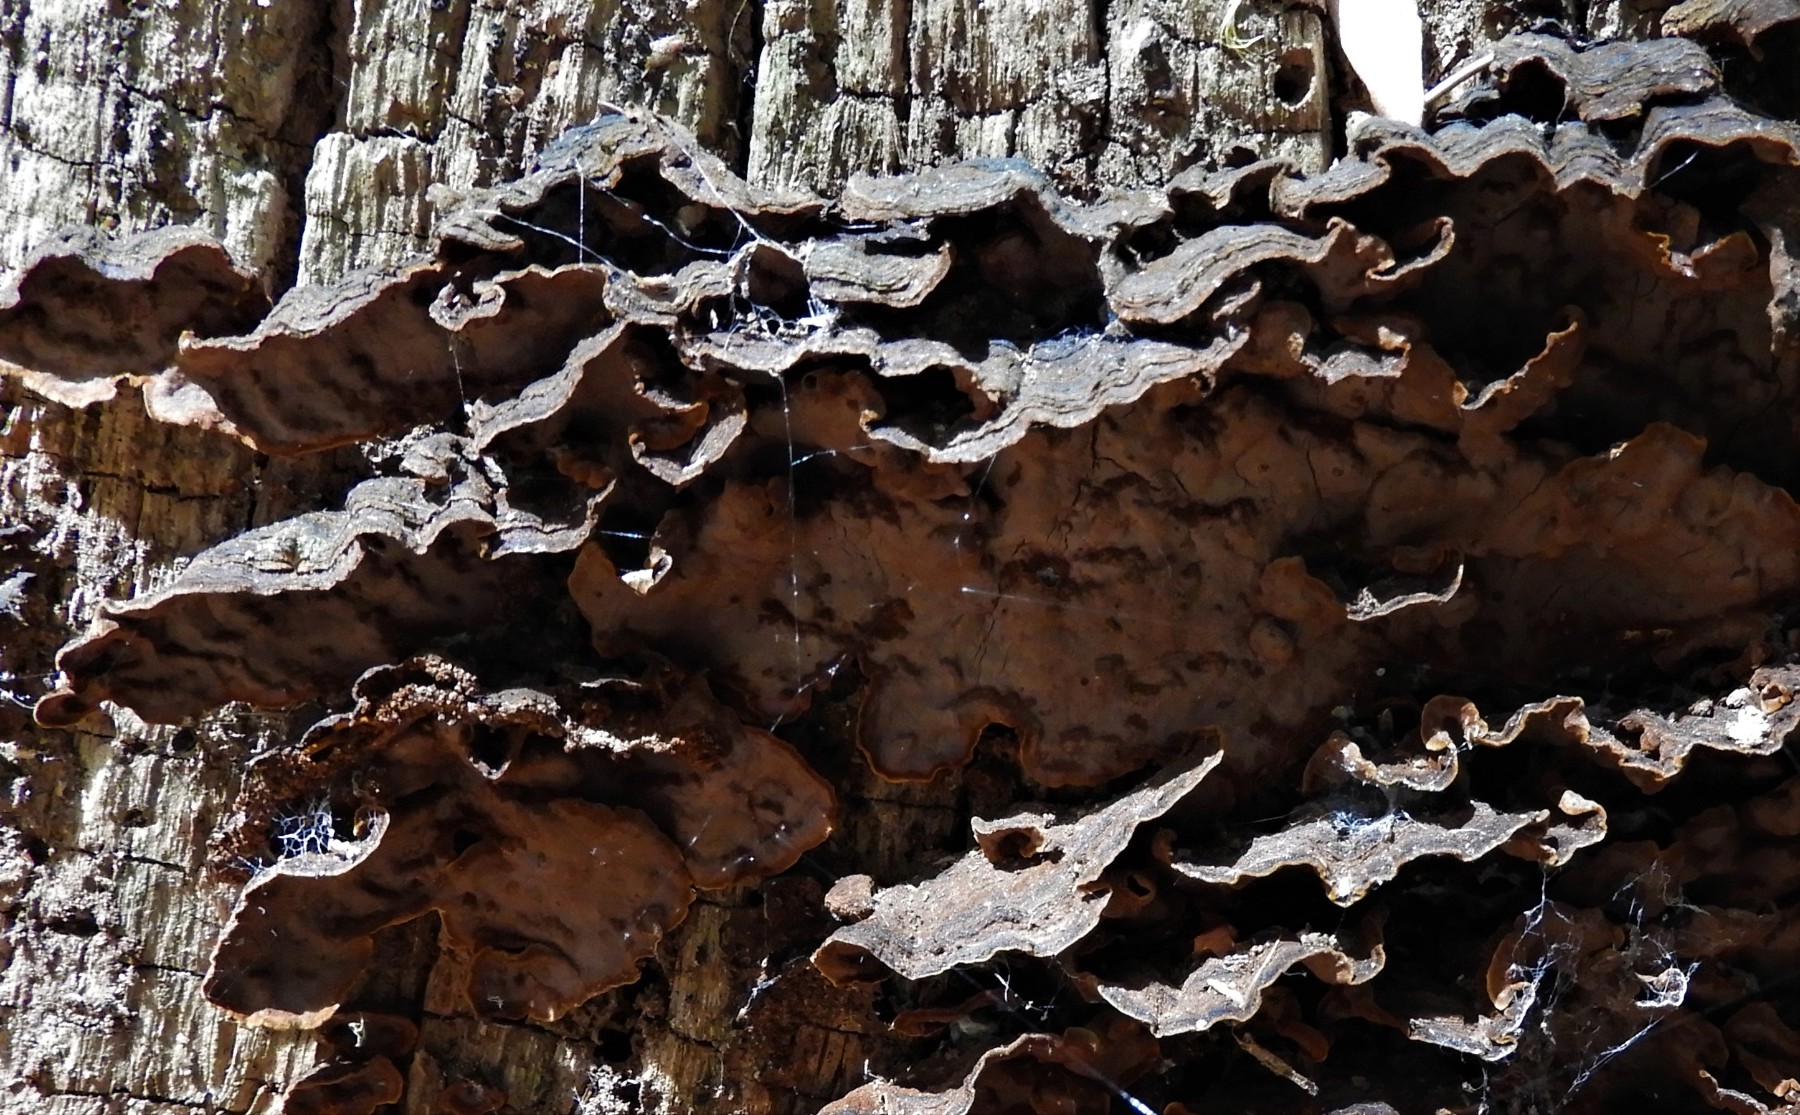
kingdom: Fungi
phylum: Basidiomycota
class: Agaricomycetes
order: Hymenochaetales
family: Hymenochaetaceae
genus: Hymenochaete
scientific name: Hymenochaete rubiginosa
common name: stiv ruslædersvamp
